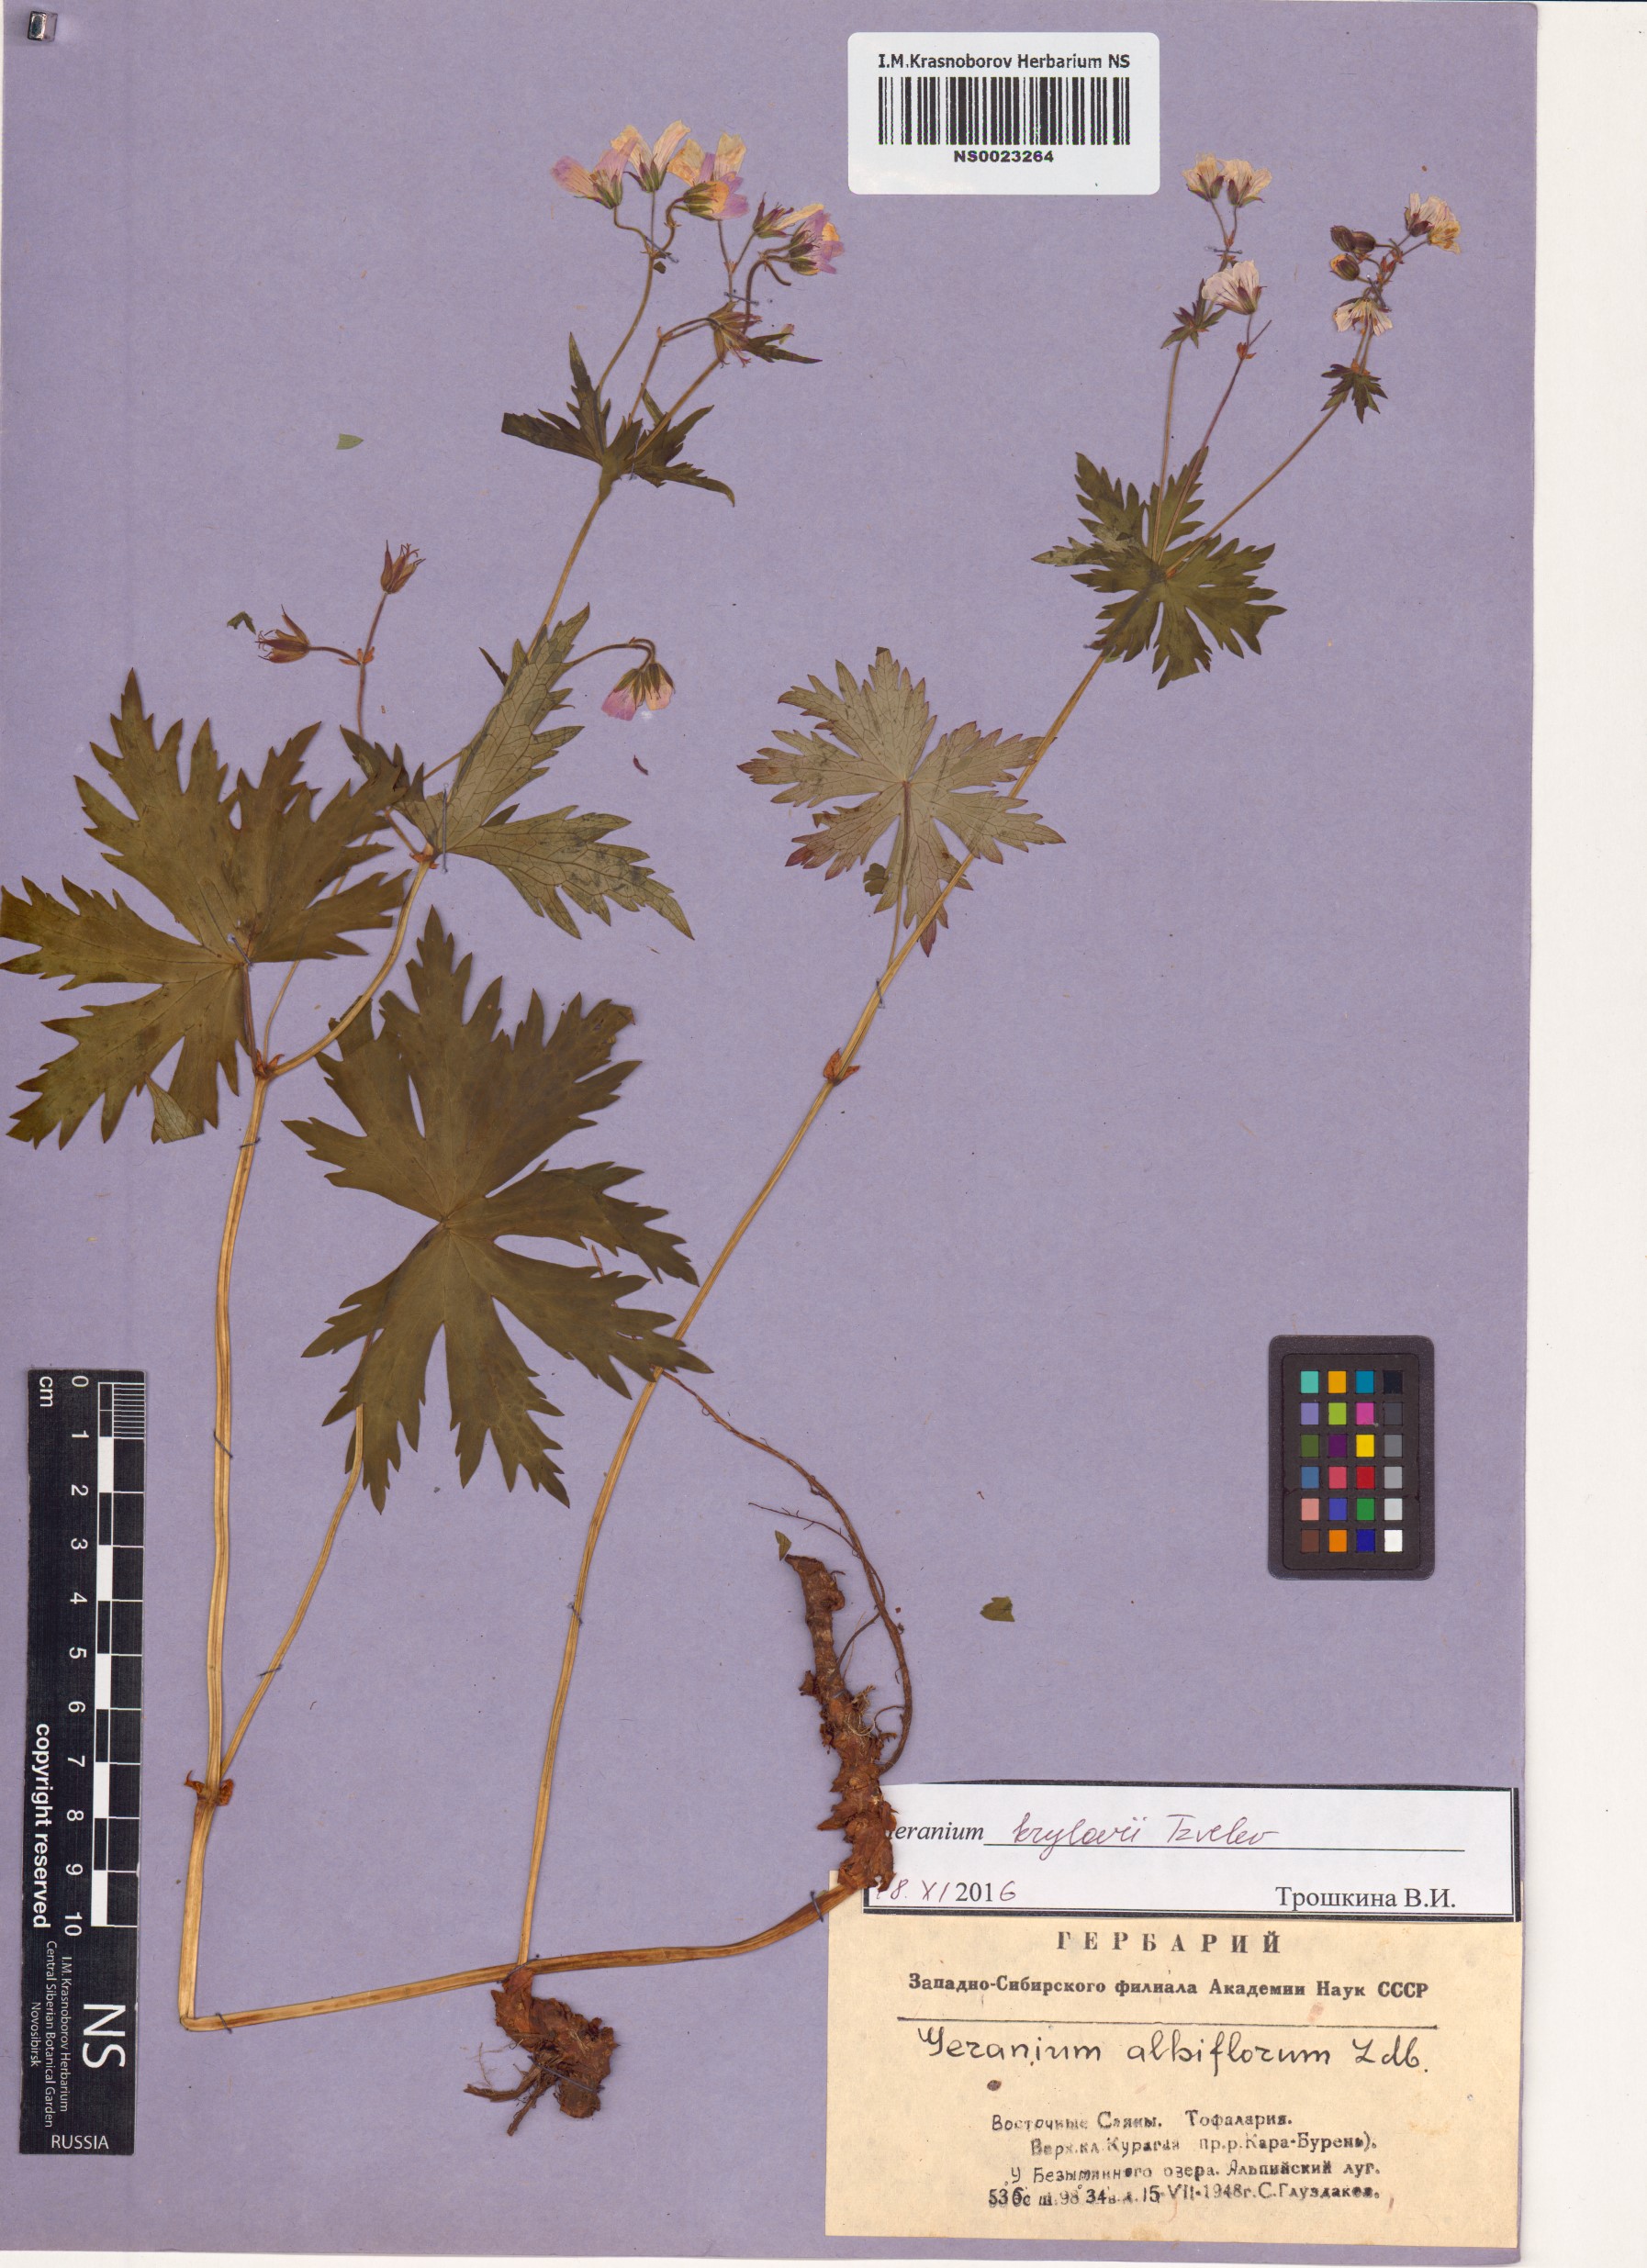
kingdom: Plantae
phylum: Tracheophyta
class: Magnoliopsida
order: Geraniales
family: Geraniaceae
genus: Geranium
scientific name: Geranium sylvaticum
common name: Wood crane's-bill
